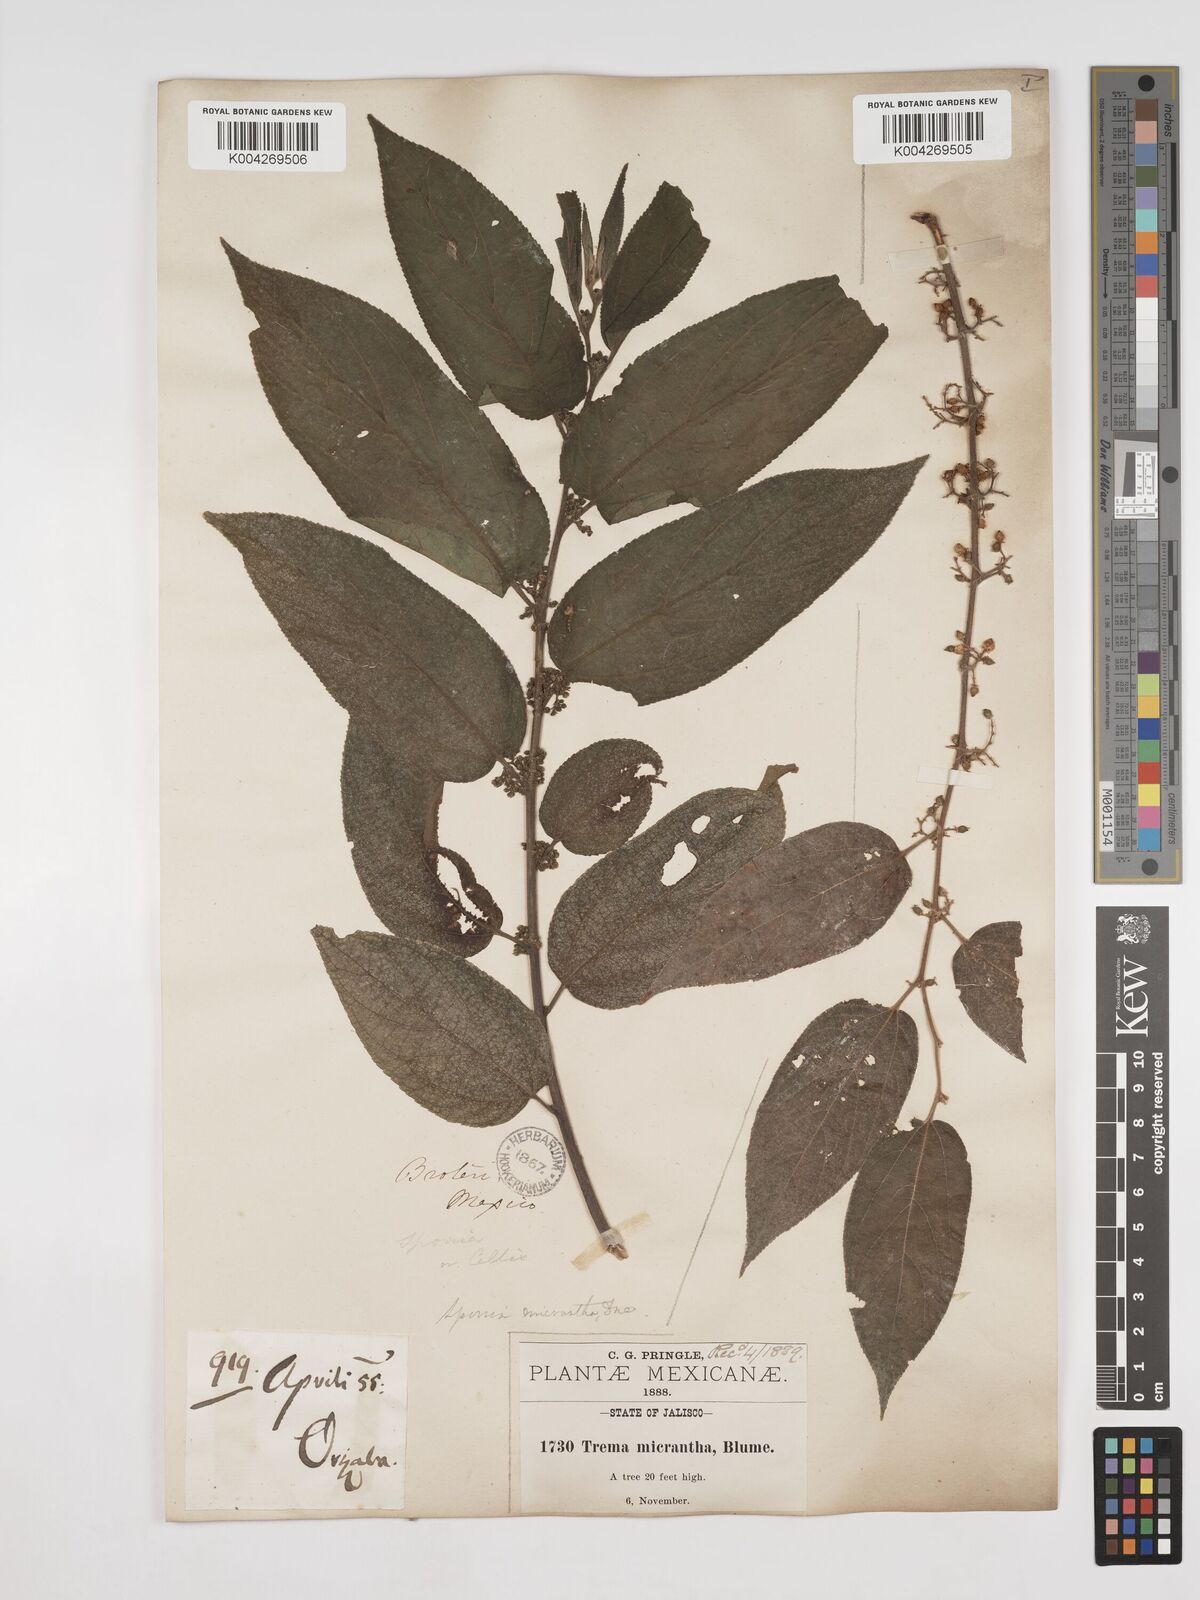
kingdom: Plantae
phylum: Tracheophyta
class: Magnoliopsida
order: Rosales
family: Cannabaceae
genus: Trema
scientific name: Trema micranthum
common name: Jamaican nettletree
